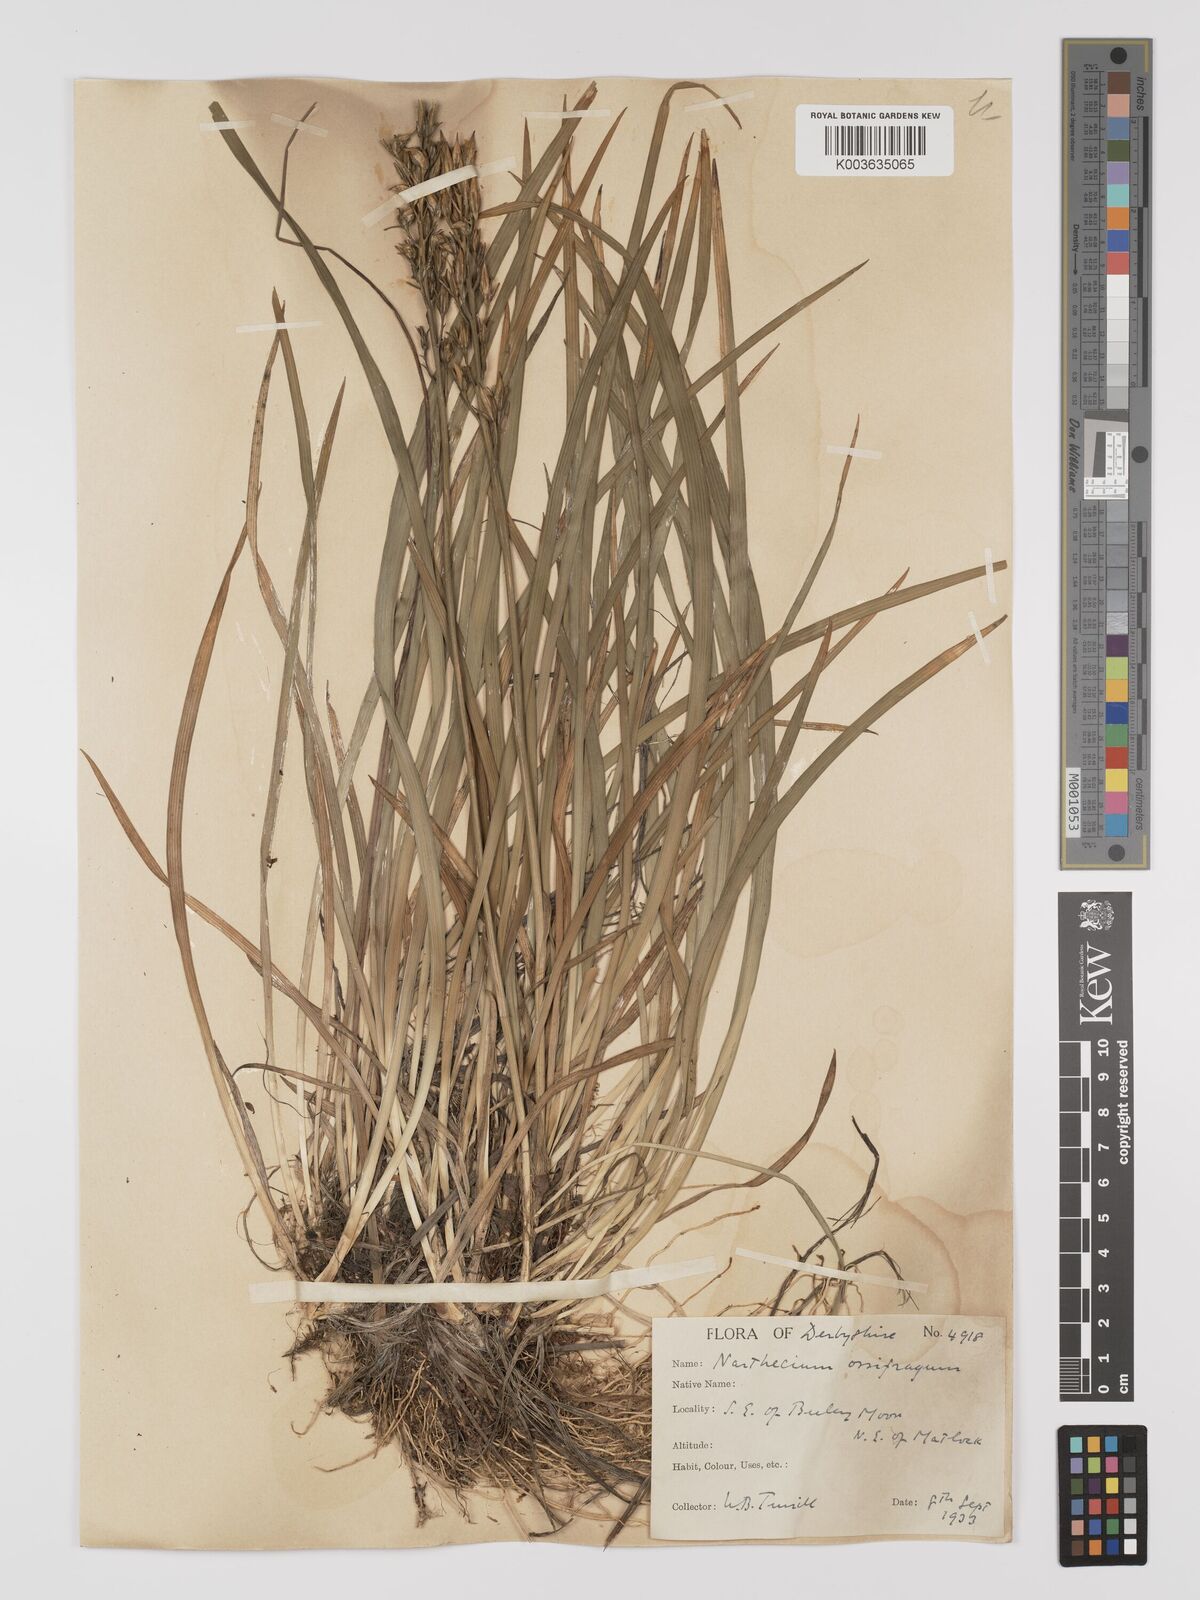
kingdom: Plantae
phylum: Tracheophyta
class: Liliopsida
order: Dioscoreales
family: Nartheciaceae
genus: Narthecium
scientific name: Narthecium
